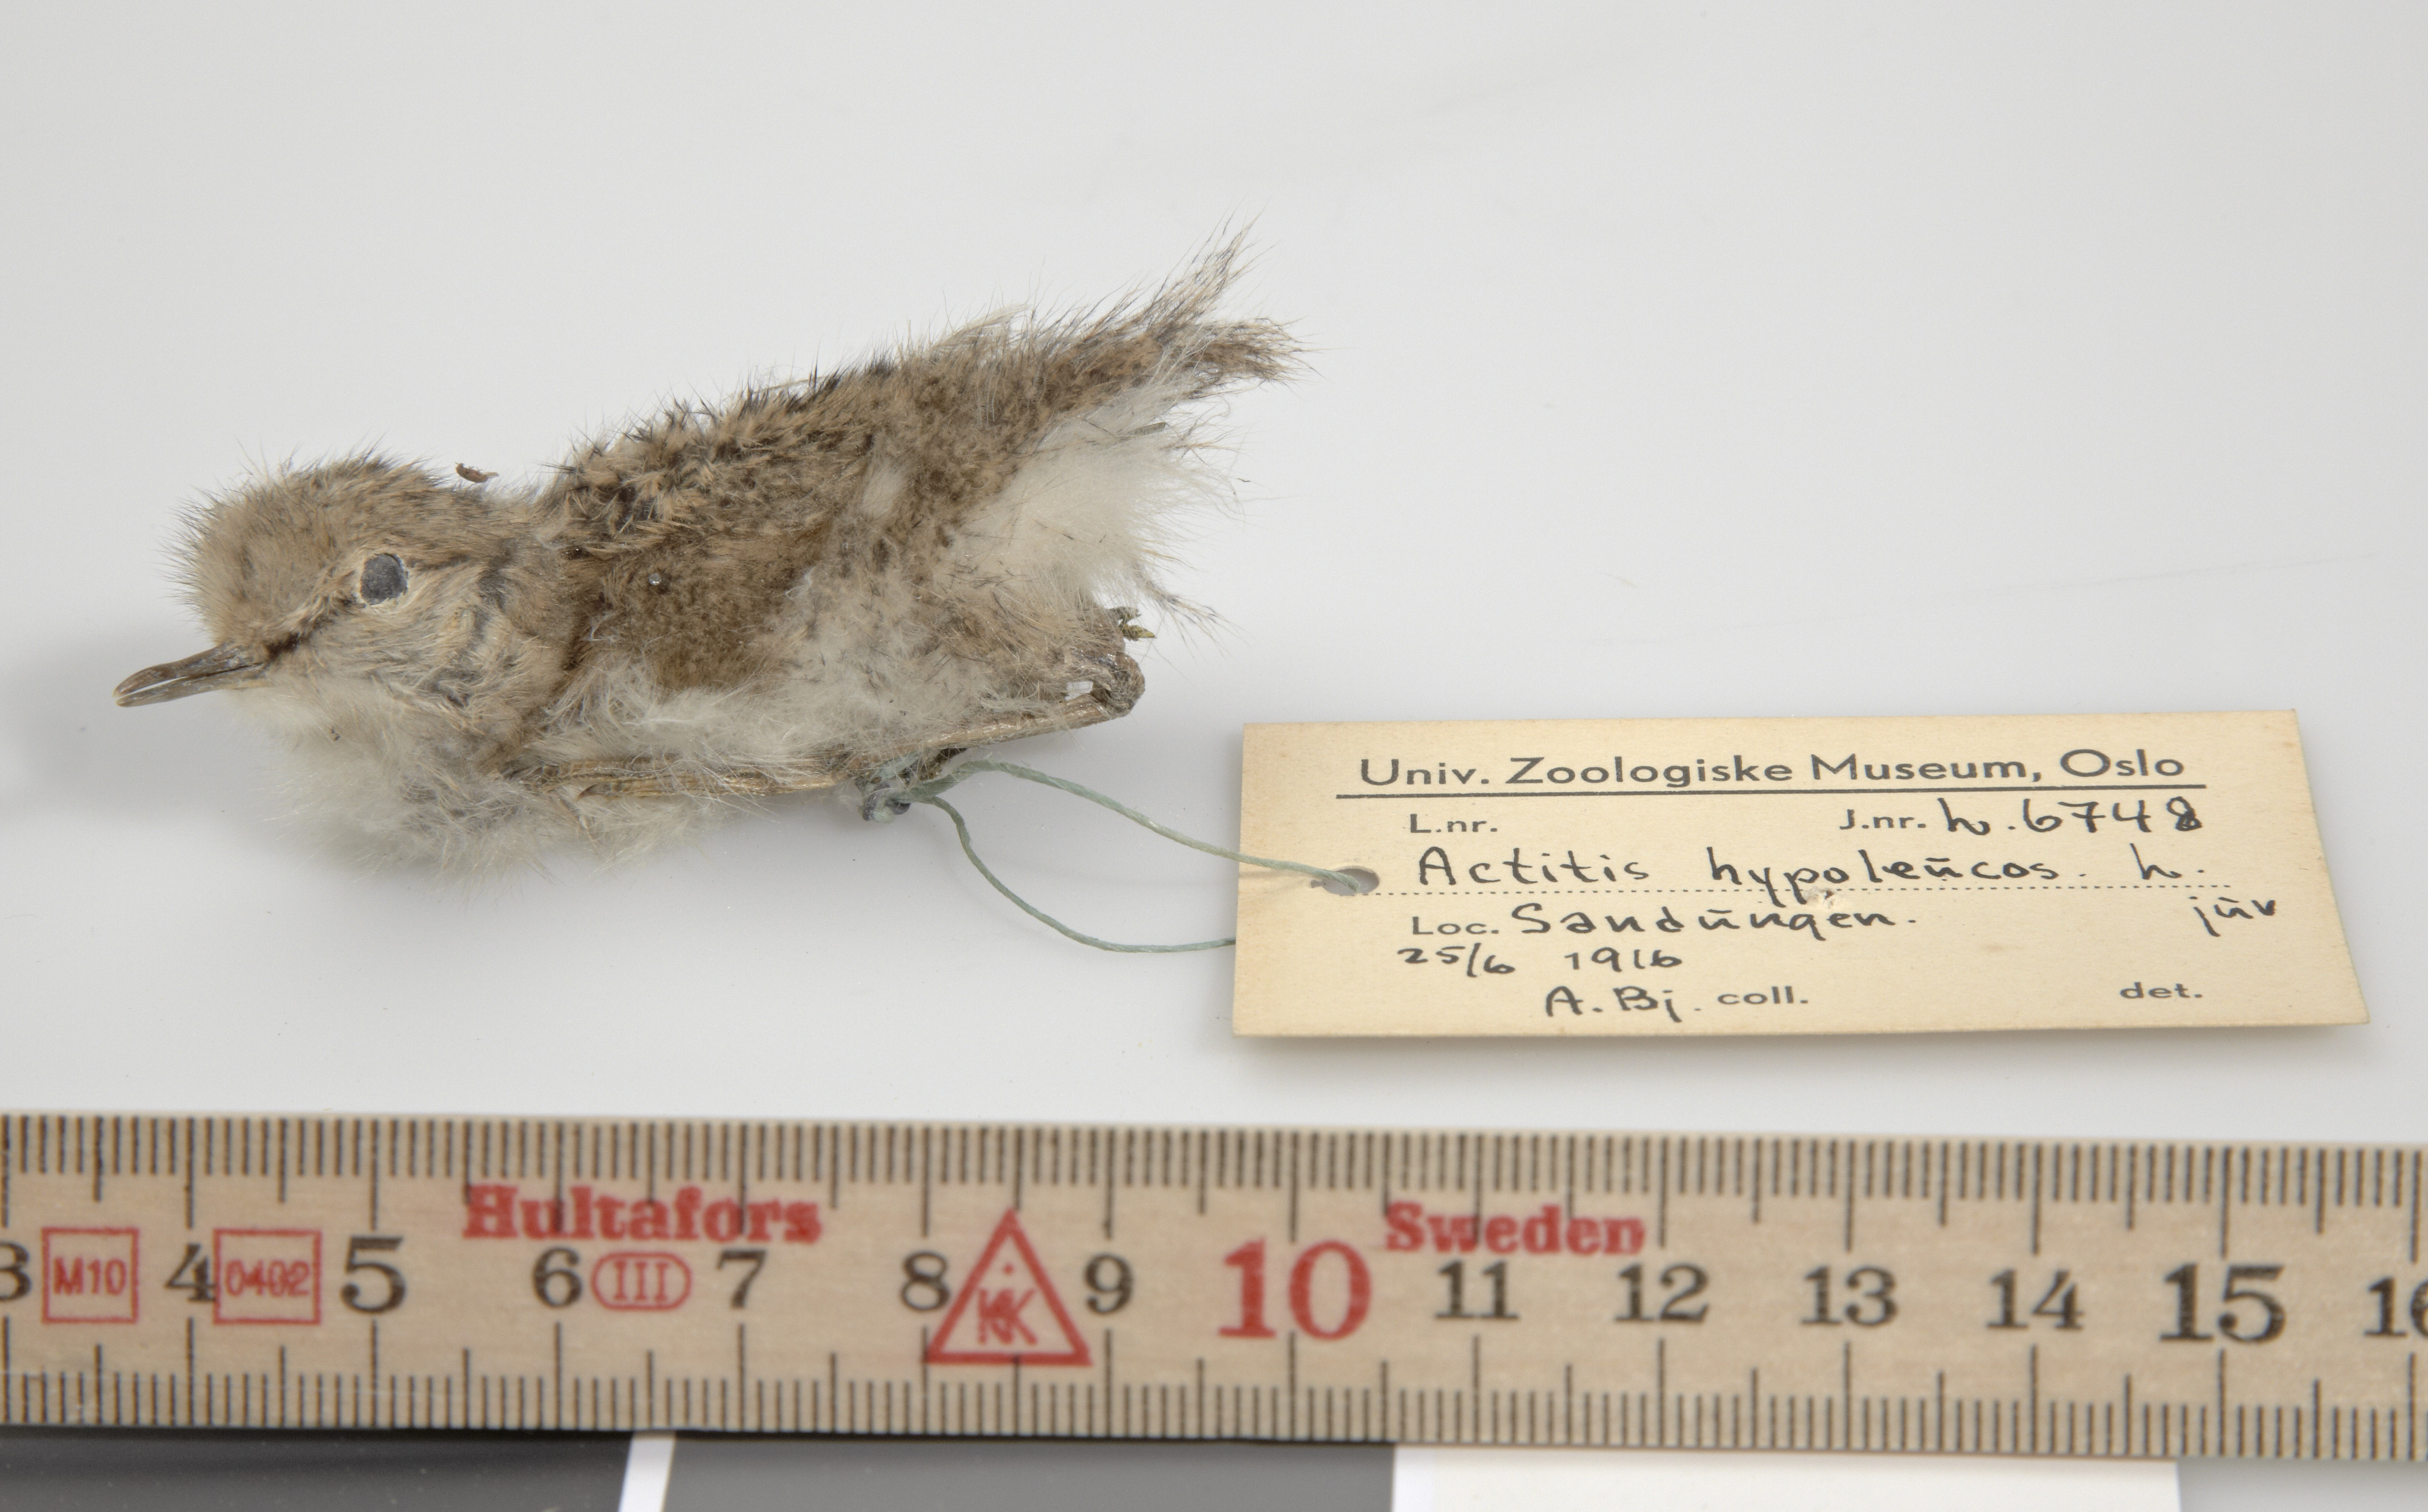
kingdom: Animalia
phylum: Chordata
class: Aves
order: Charadriiformes
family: Scolopacidae
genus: Actitis
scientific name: Actitis hypoleucos
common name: Common sandpiper
